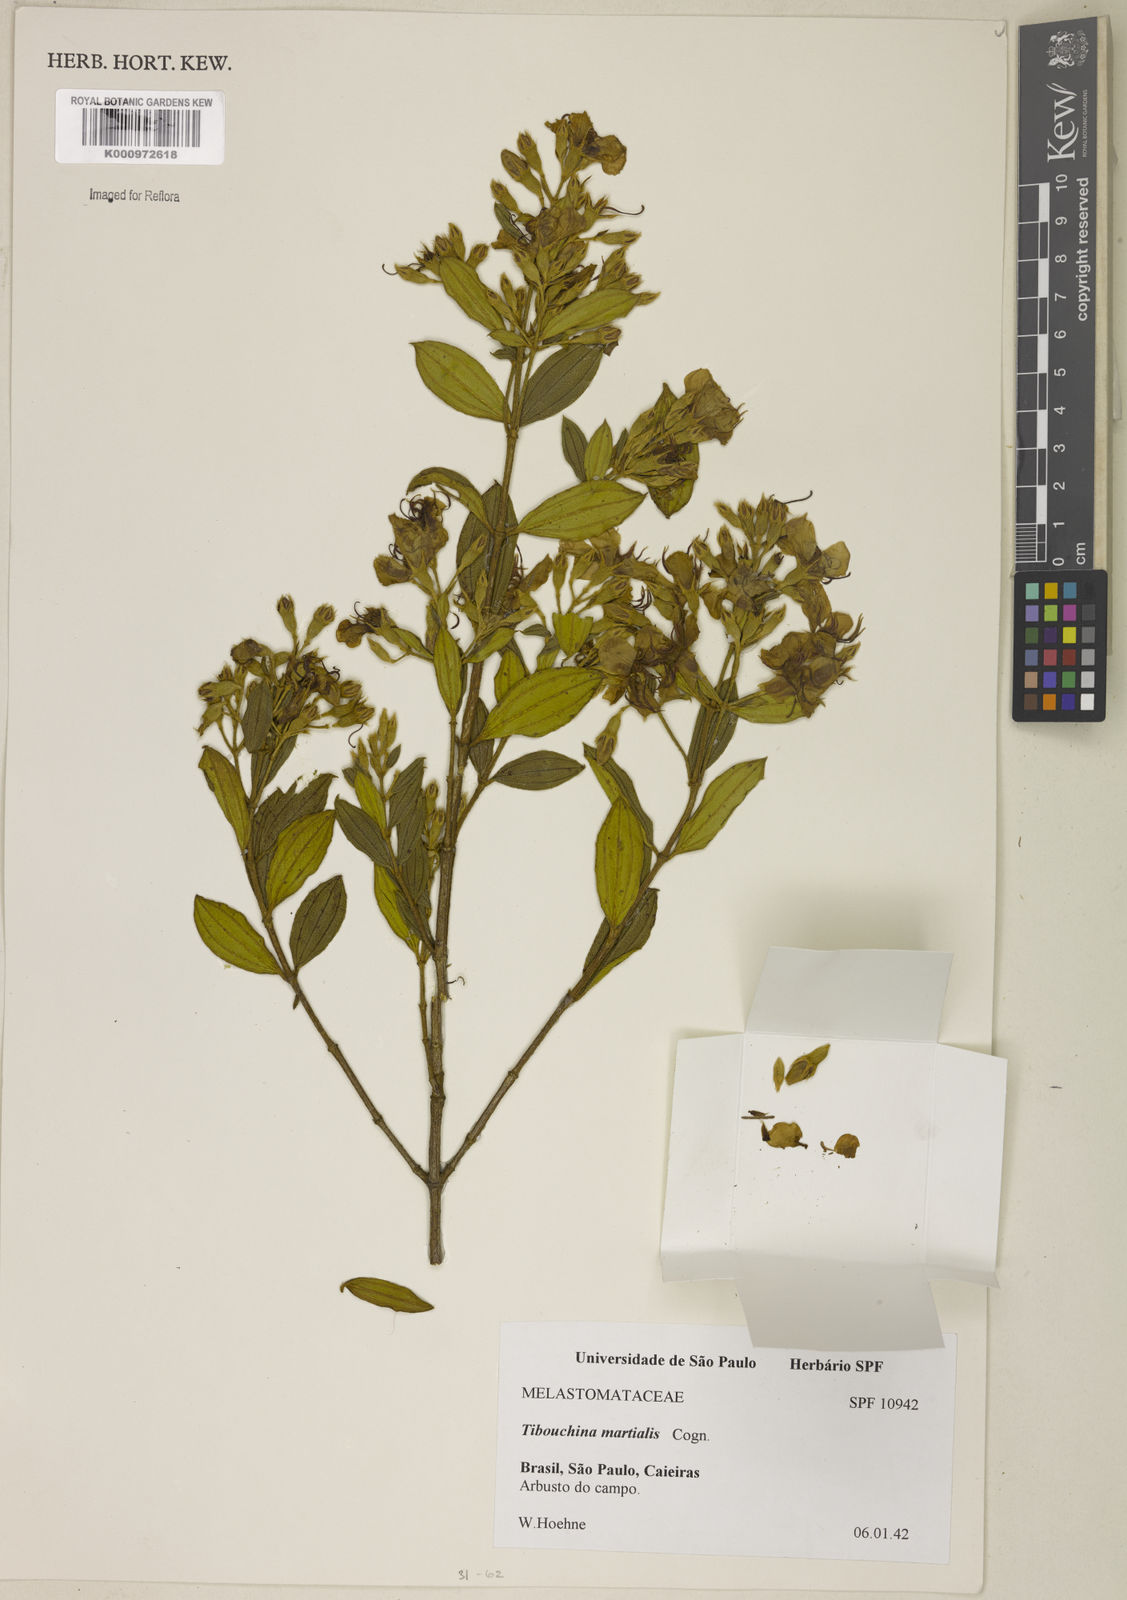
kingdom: Plantae
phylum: Tracheophyta
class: Magnoliopsida
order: Myrtales
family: Melastomataceae
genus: Pleroma
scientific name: Pleroma martiale
